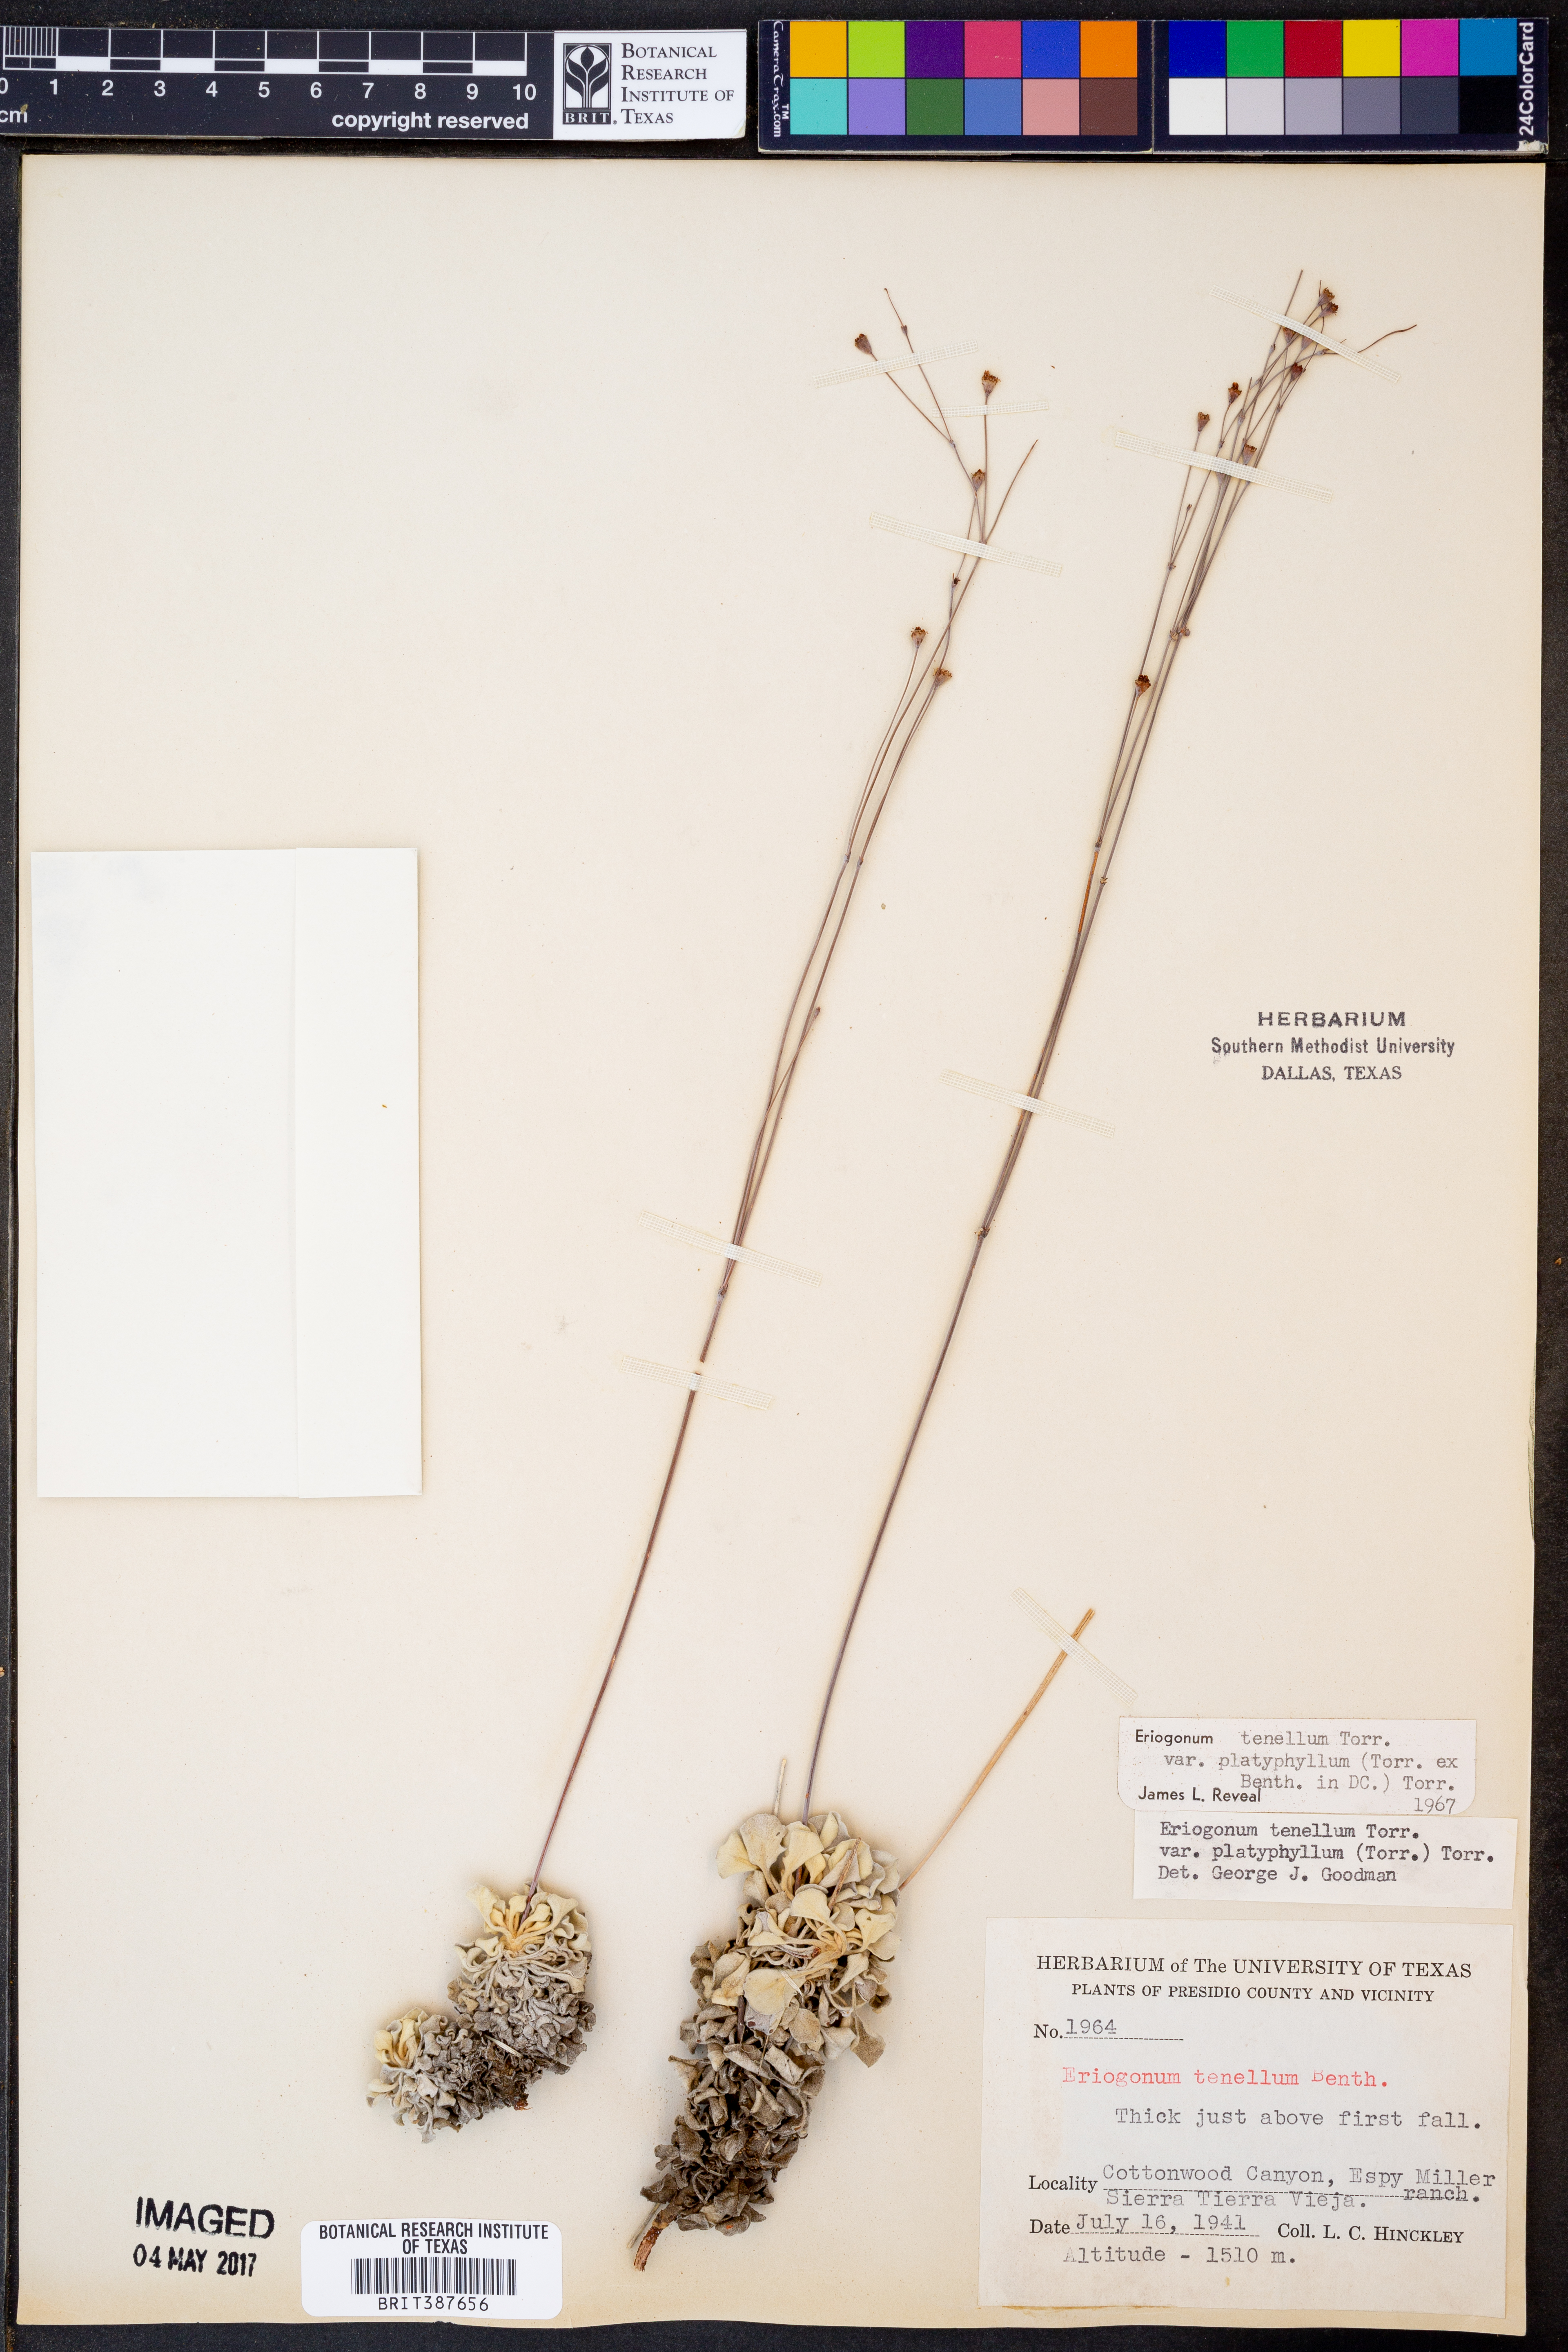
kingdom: Plantae
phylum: Tracheophyta
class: Magnoliopsida
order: Caryophyllales
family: Polygonaceae
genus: Eriogonum
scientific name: Eriogonum tenellum
